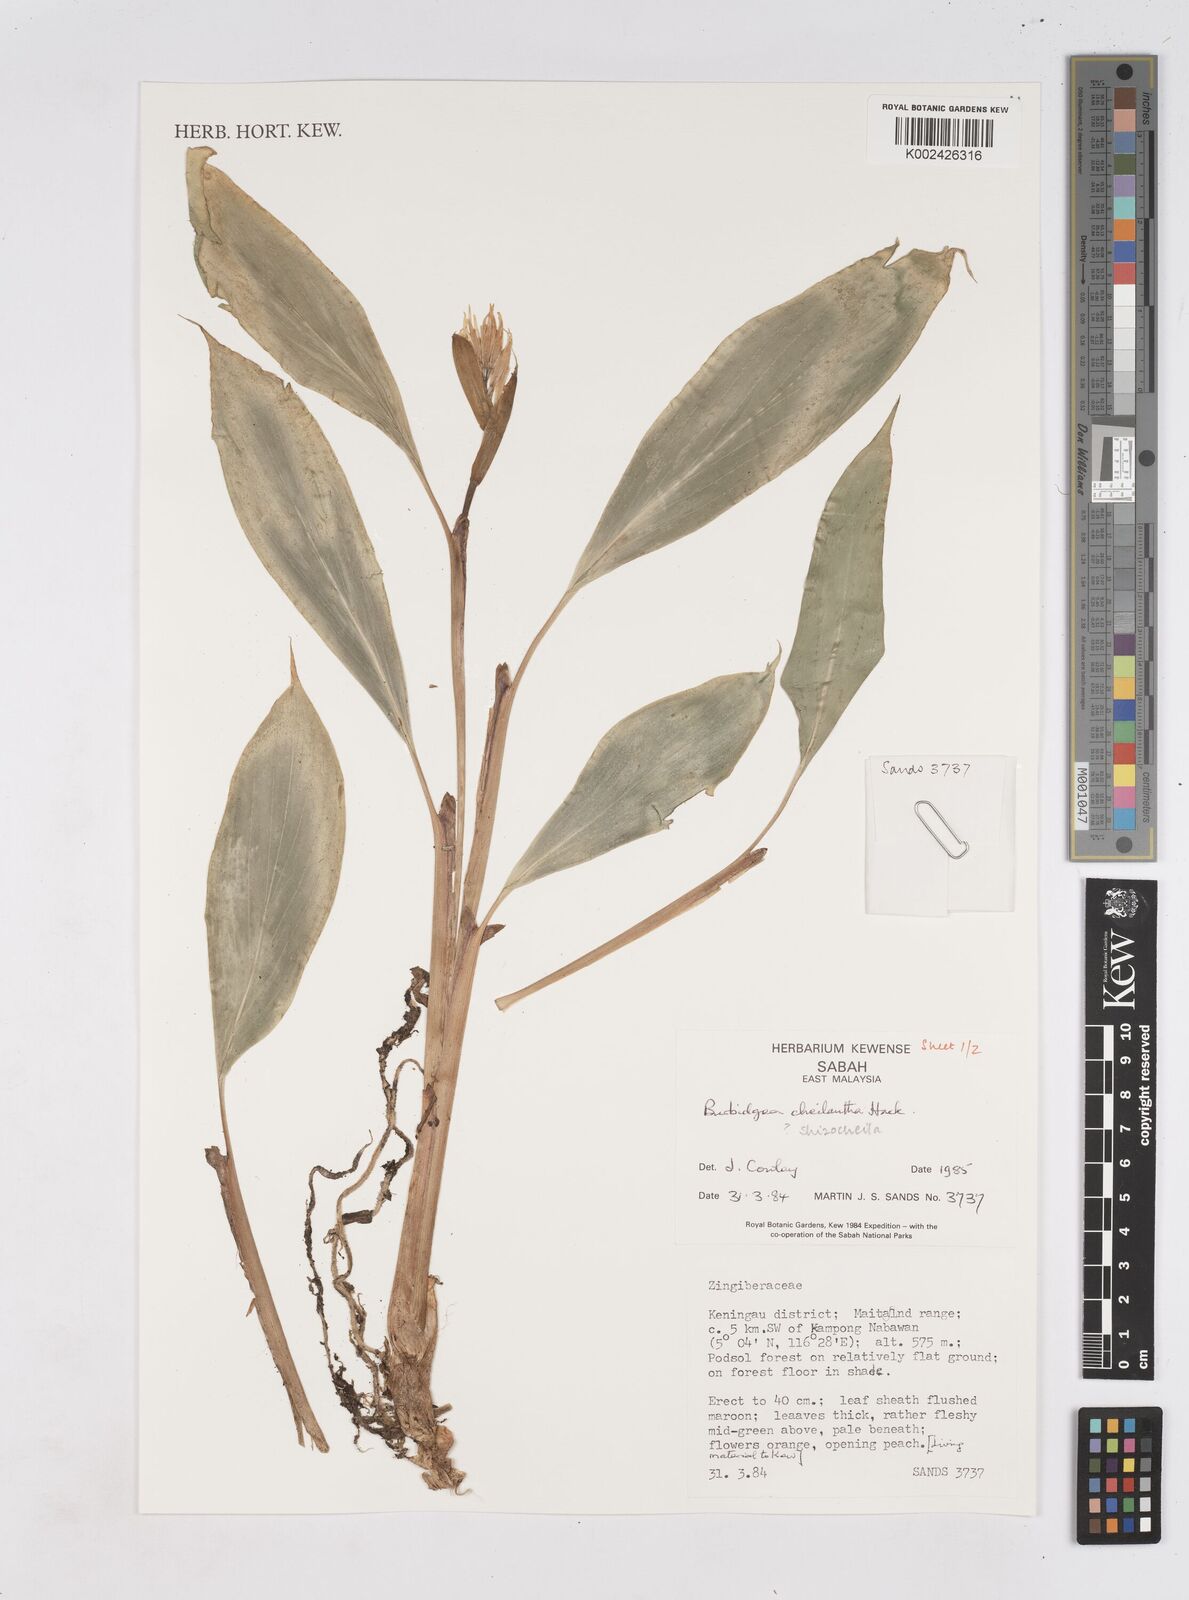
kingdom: Plantae
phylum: Tracheophyta
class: Liliopsida
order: Zingiberales
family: Zingiberaceae
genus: Burbidgea
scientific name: Burbidgea schizocheila
